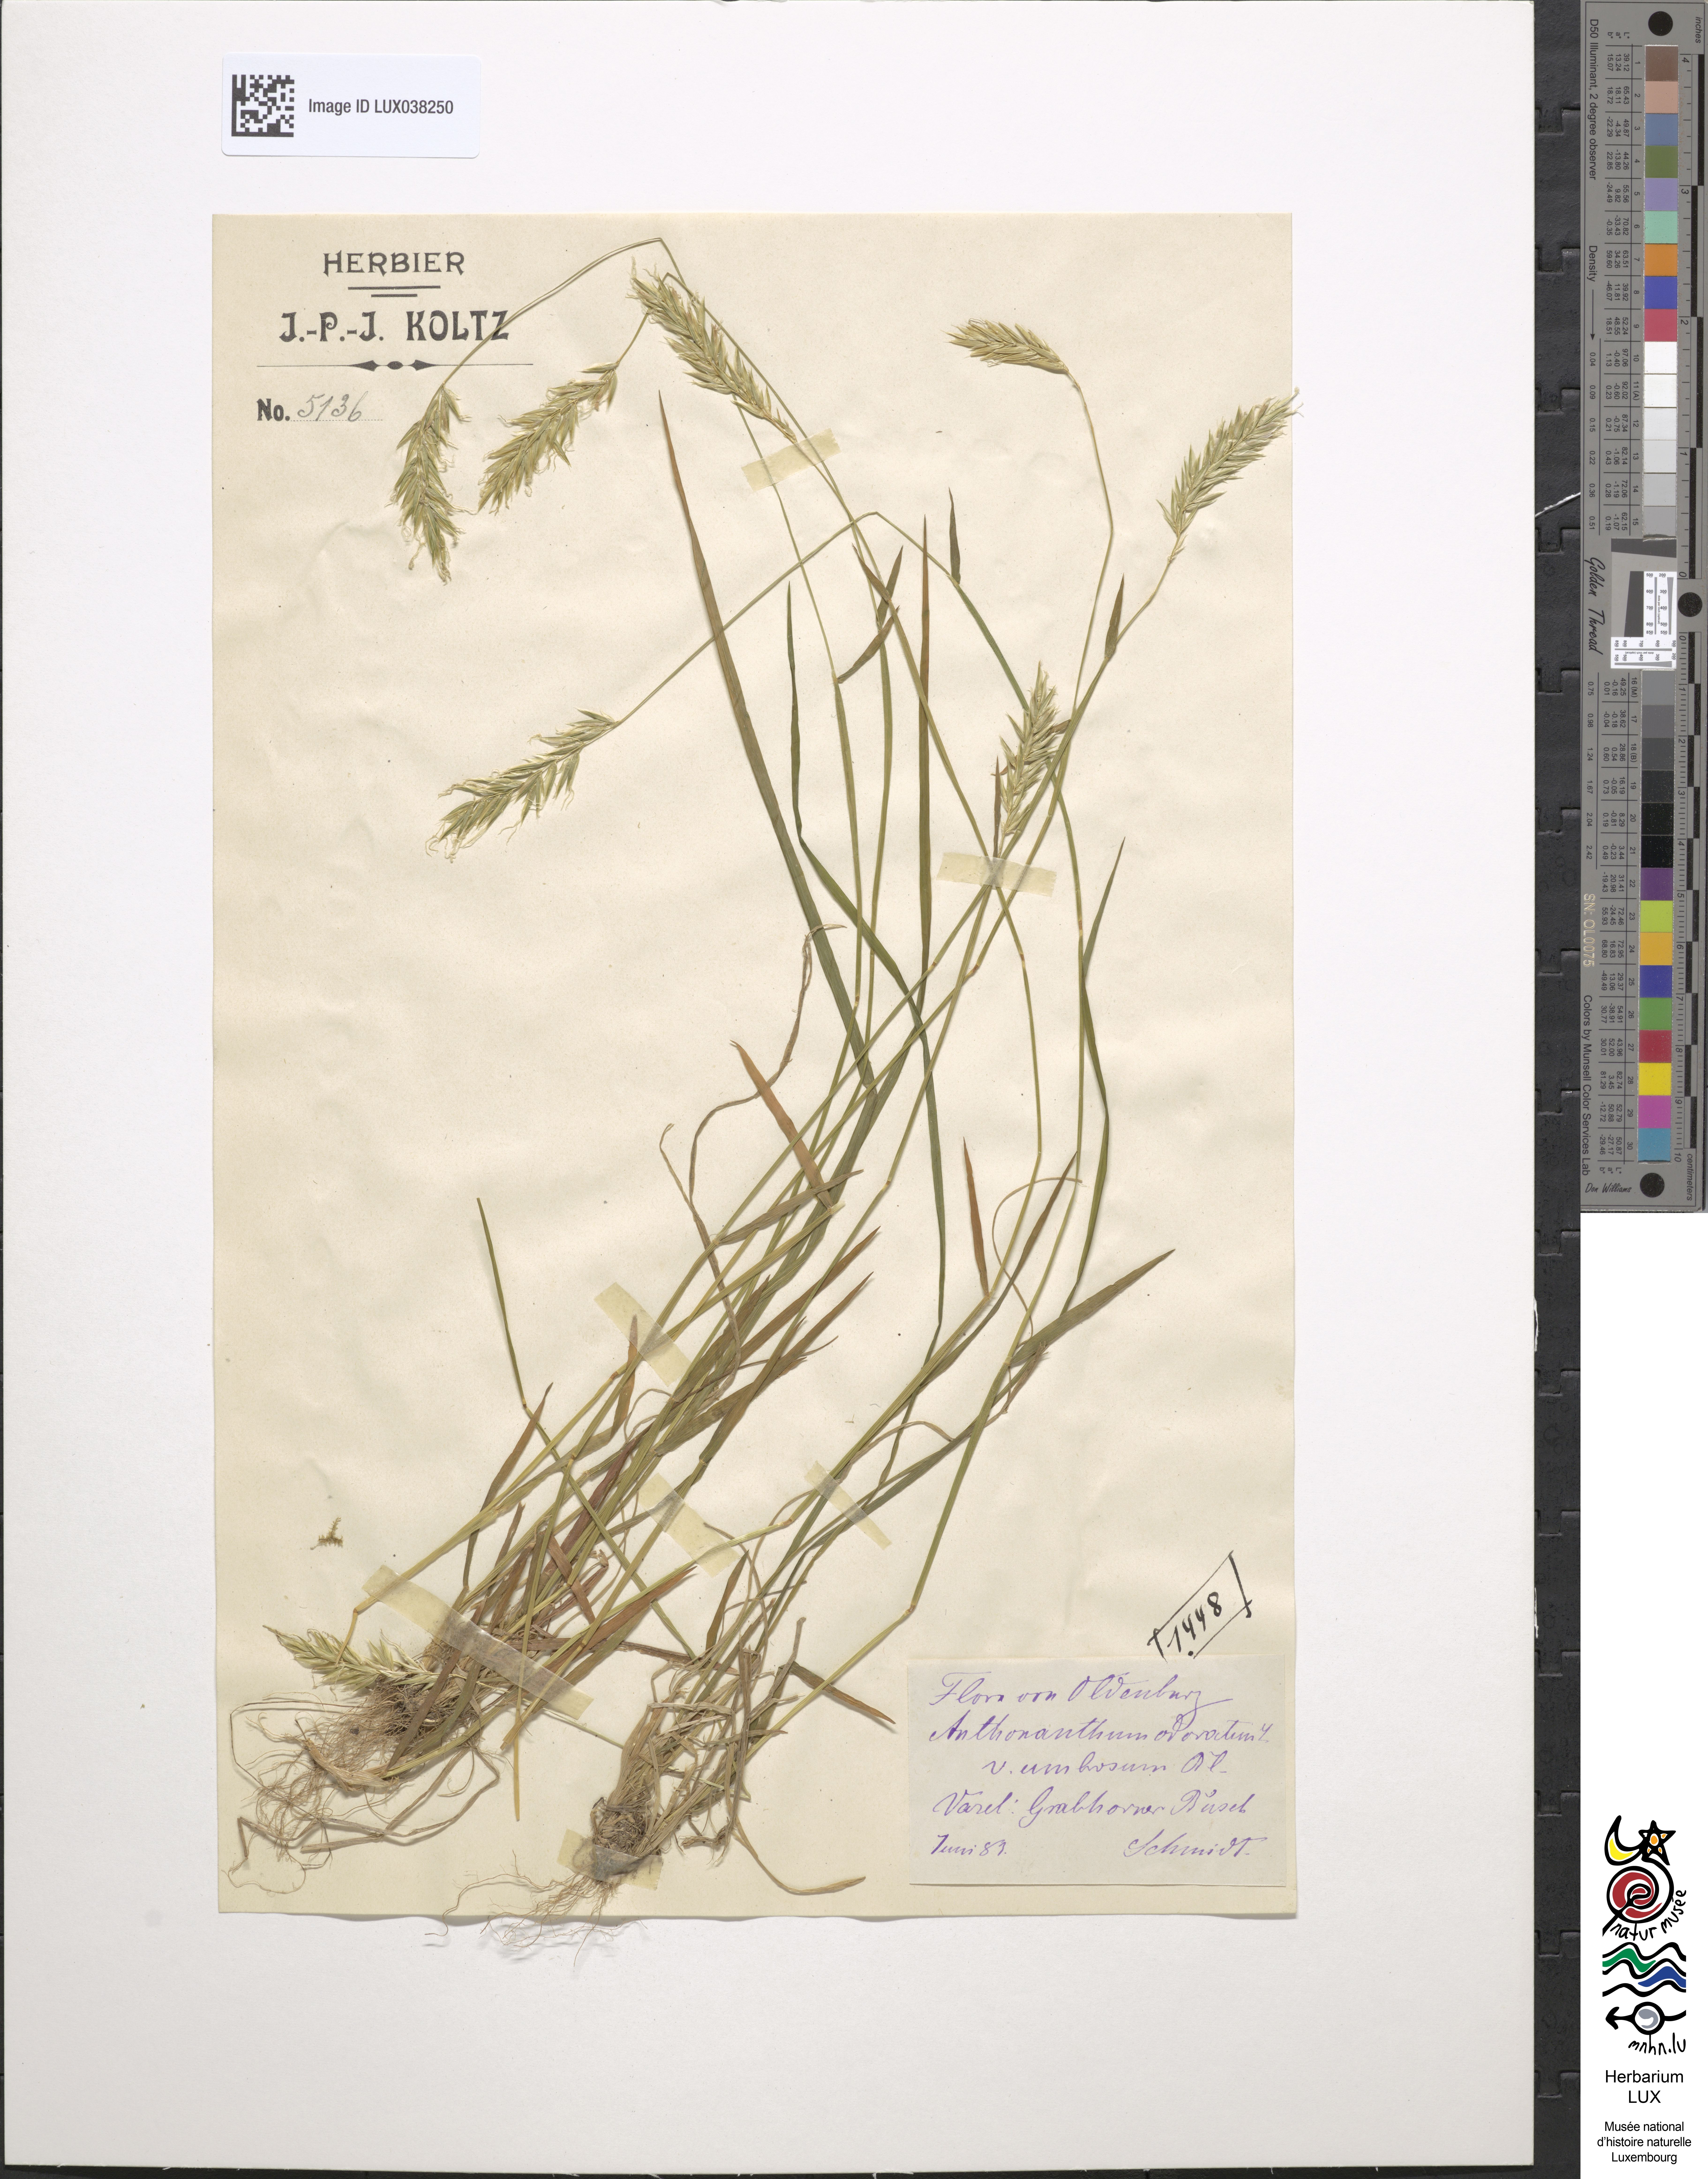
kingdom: Plantae
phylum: Tracheophyta
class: Liliopsida
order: Poales
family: Poaceae
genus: Anthoxanthum
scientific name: Anthoxanthum odoratum
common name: Sweet vernalgrass
